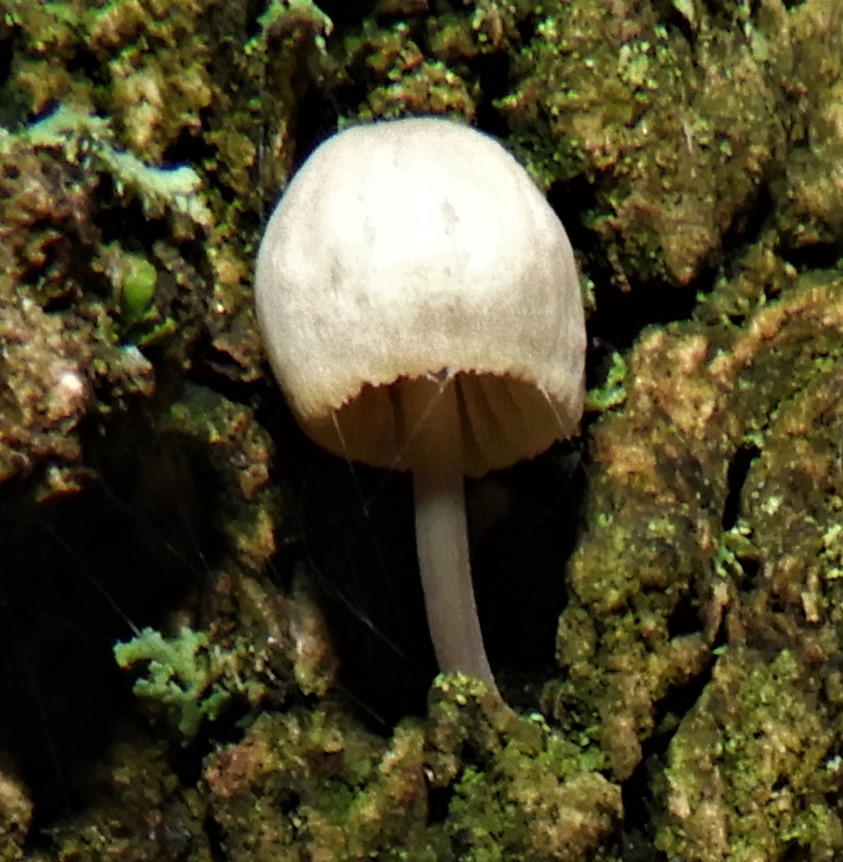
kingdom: Fungi
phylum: Basidiomycota
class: Agaricomycetes
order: Agaricales
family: Mycenaceae
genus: Mycena
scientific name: Mycena arcangeliana
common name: oliven-huesvamp
